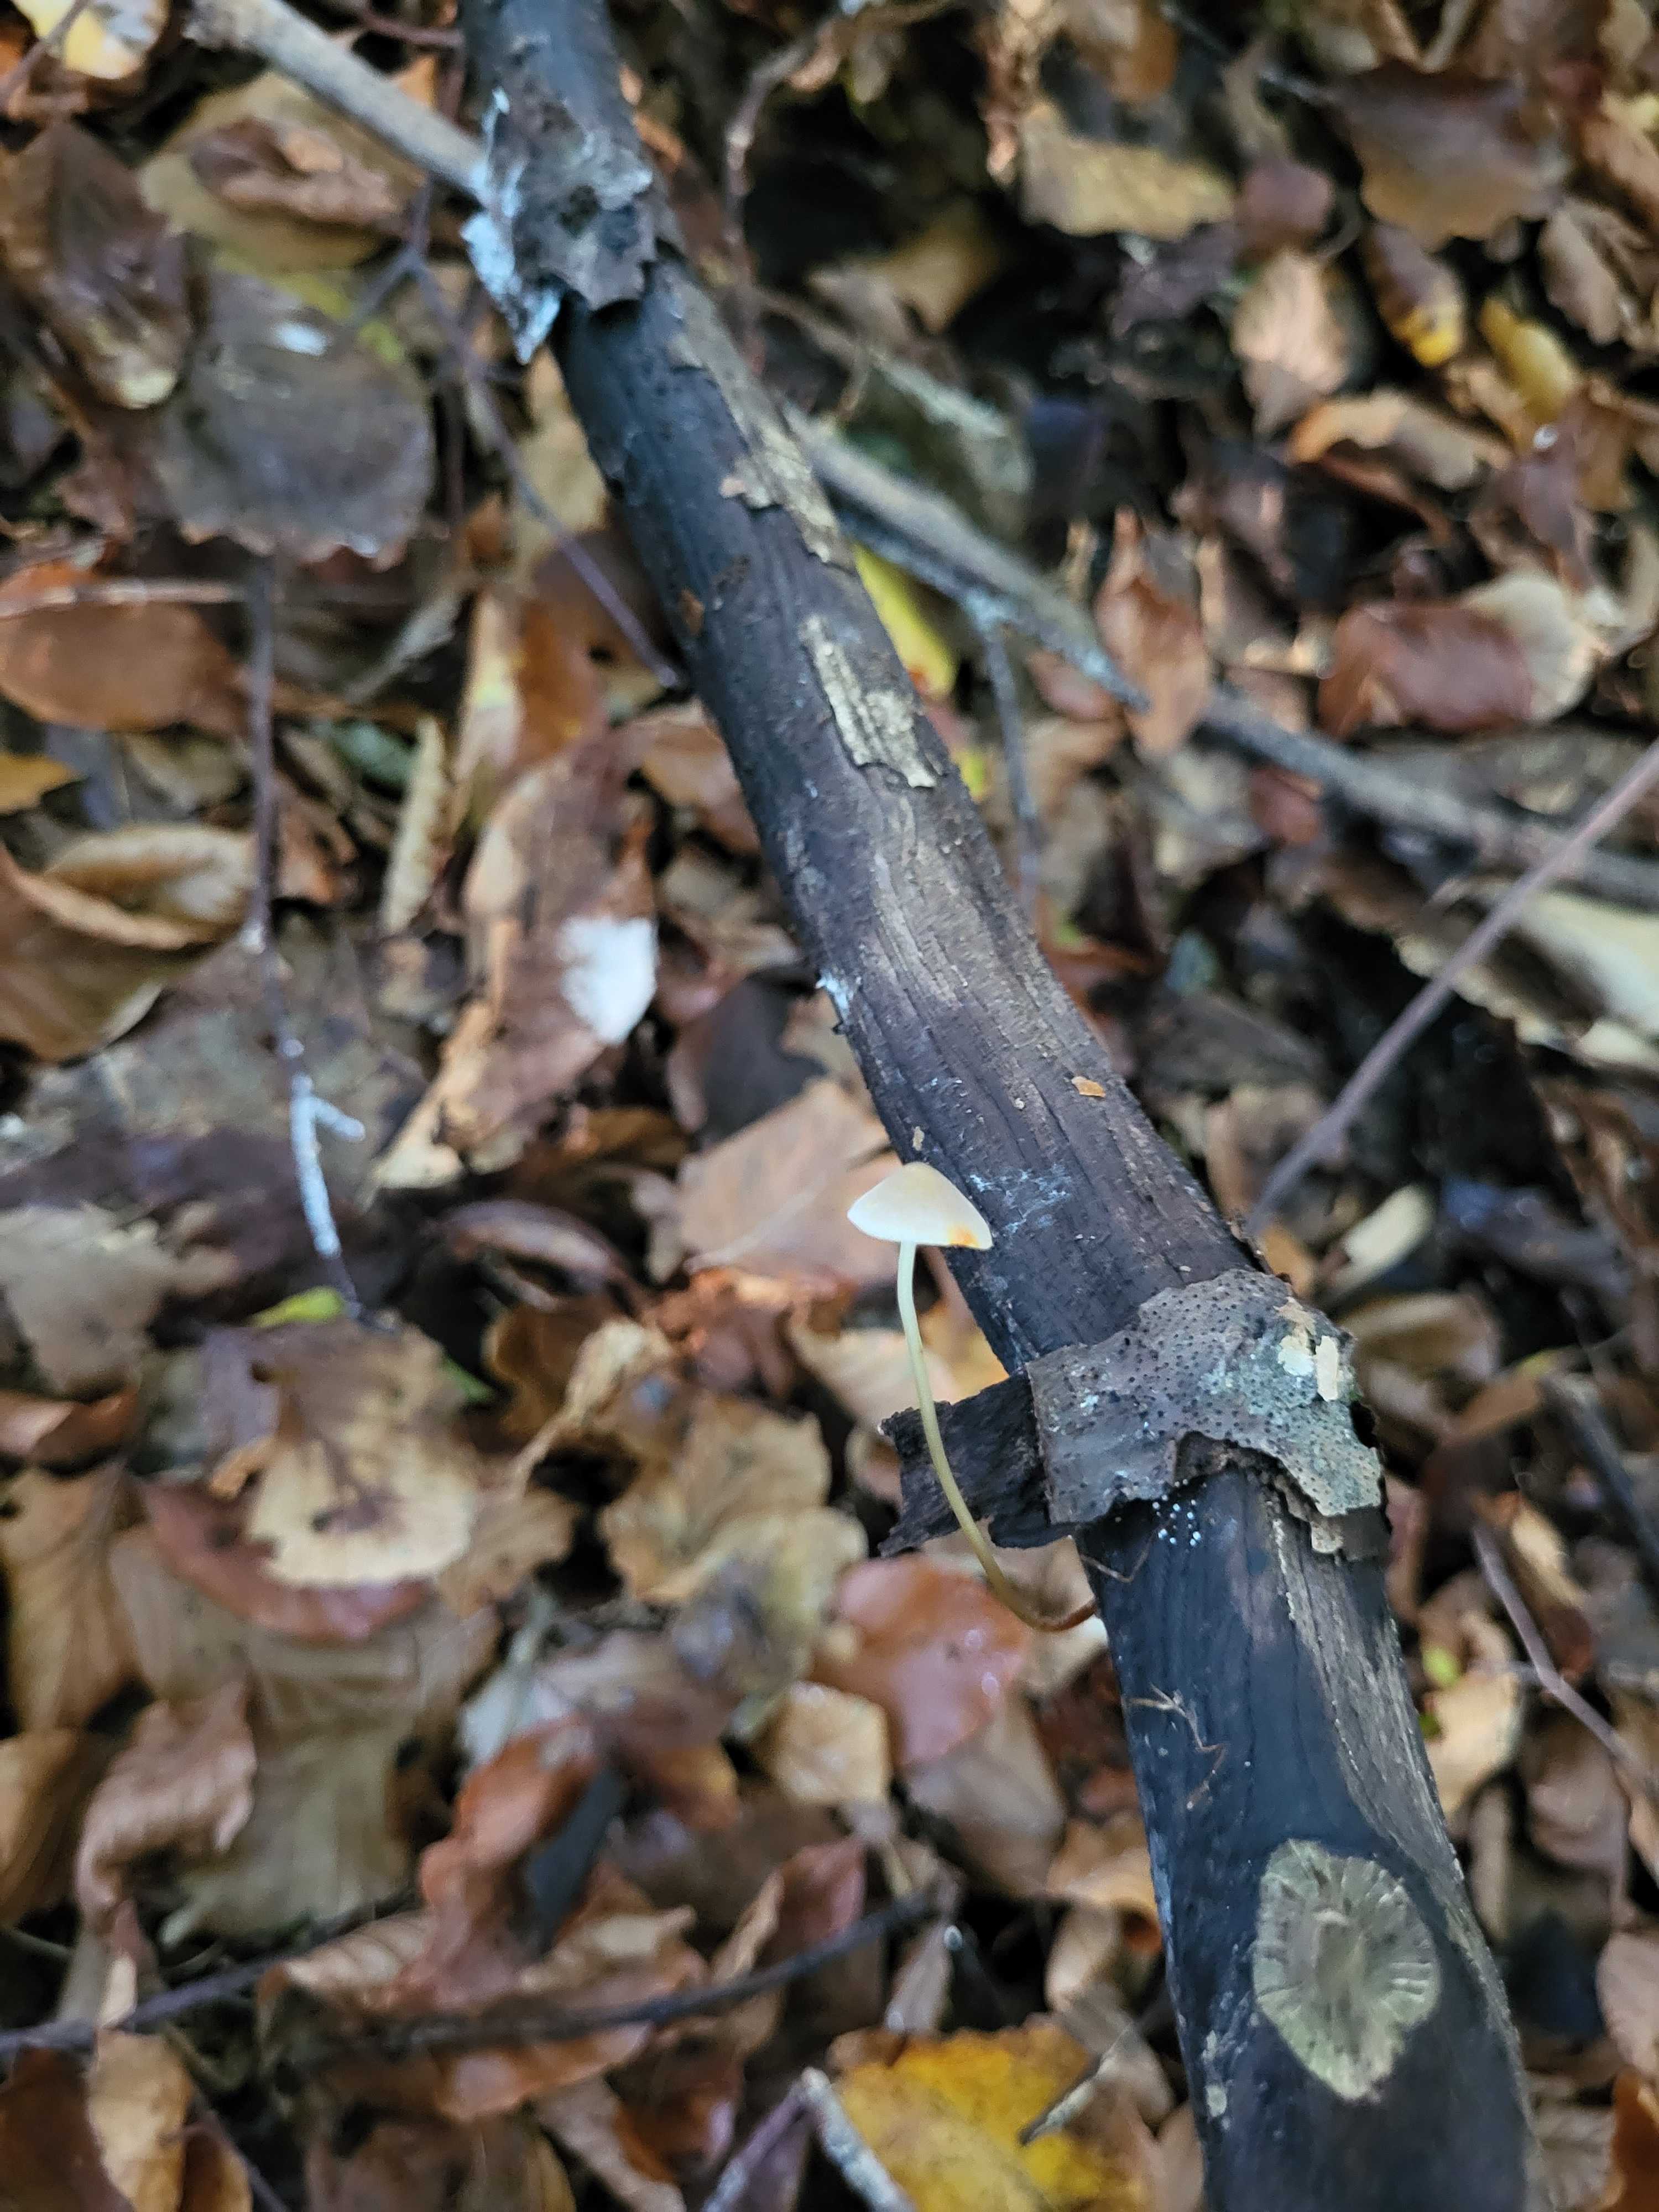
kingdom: Fungi
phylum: Basidiomycota
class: Agaricomycetes
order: Agaricales
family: Mycenaceae
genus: Mycena
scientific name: Mycena crocata
